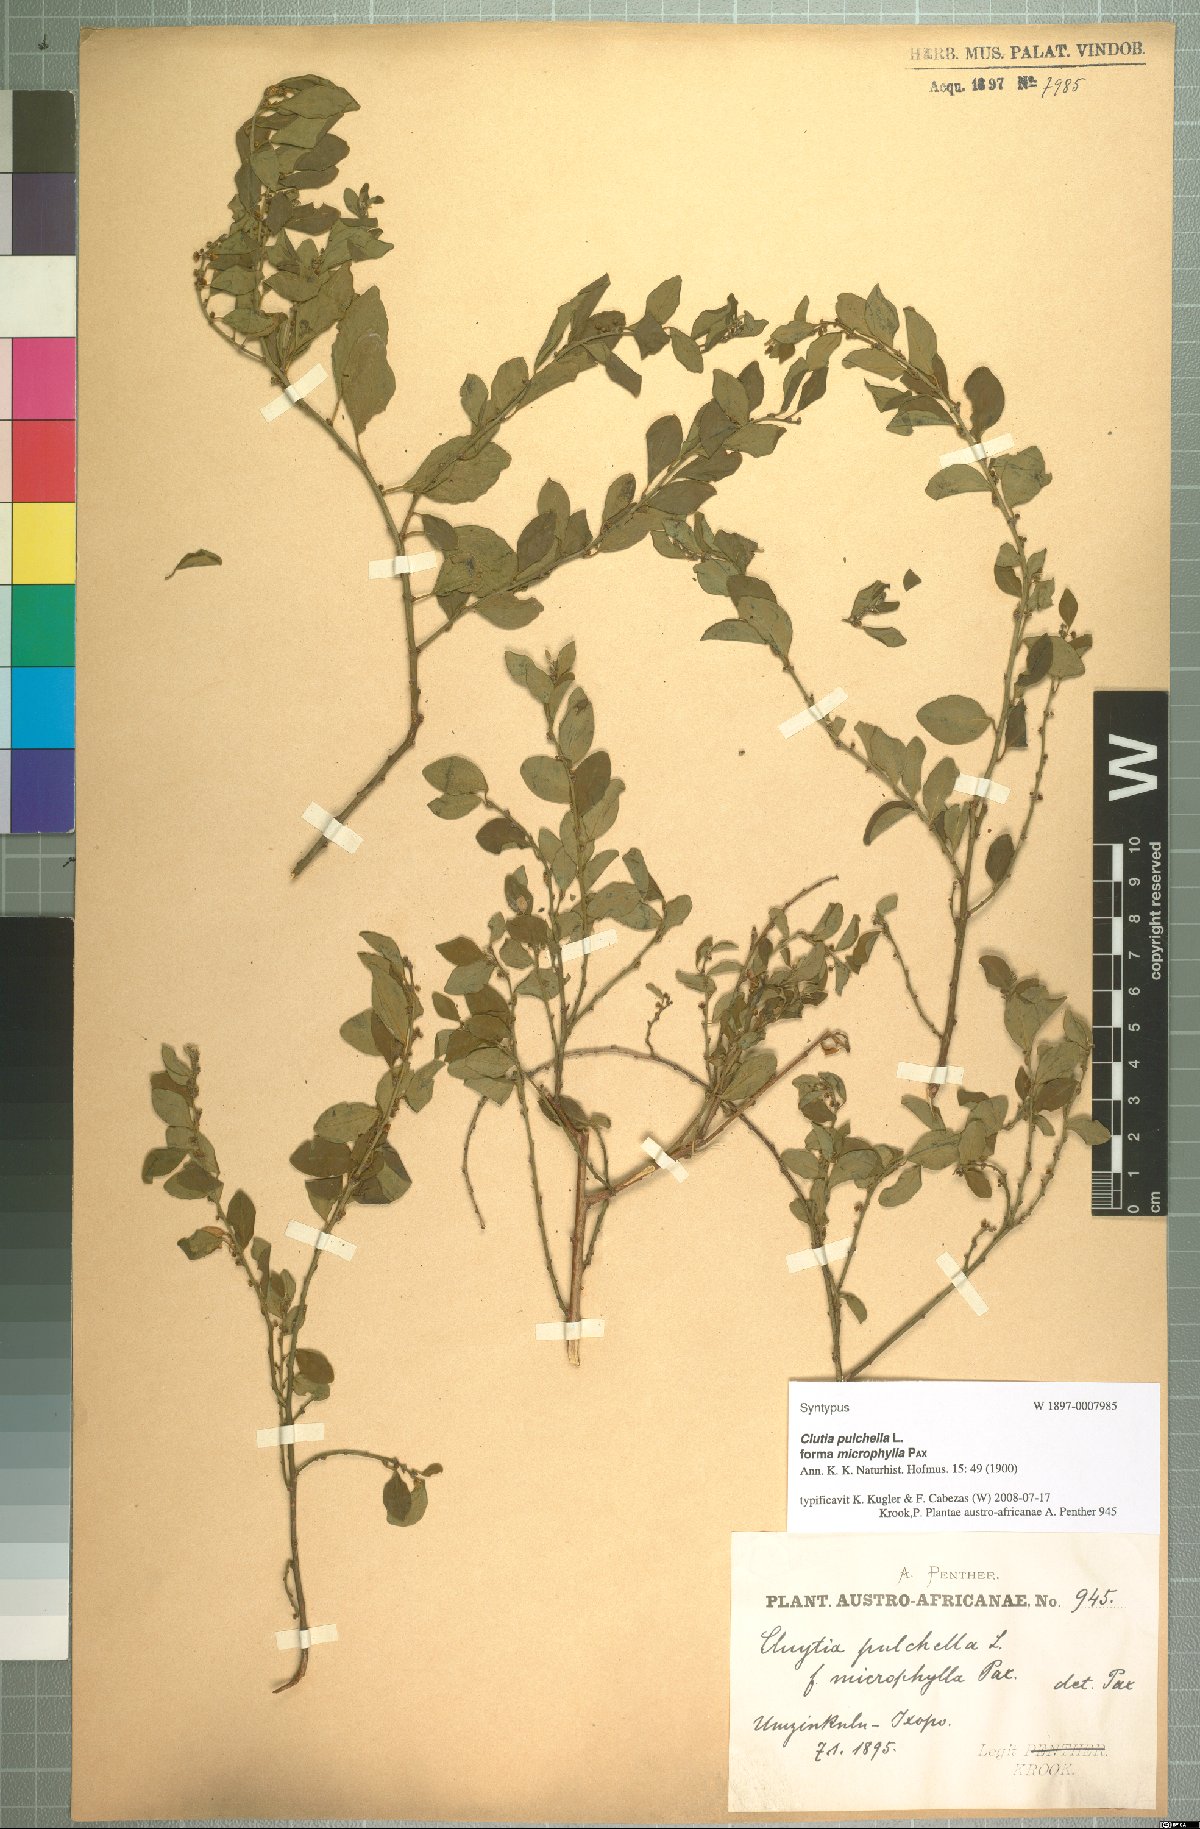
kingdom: Plantae
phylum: Tracheophyta
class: Magnoliopsida
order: Malpighiales
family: Peraceae
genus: Clutia
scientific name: Clutia pulchella
